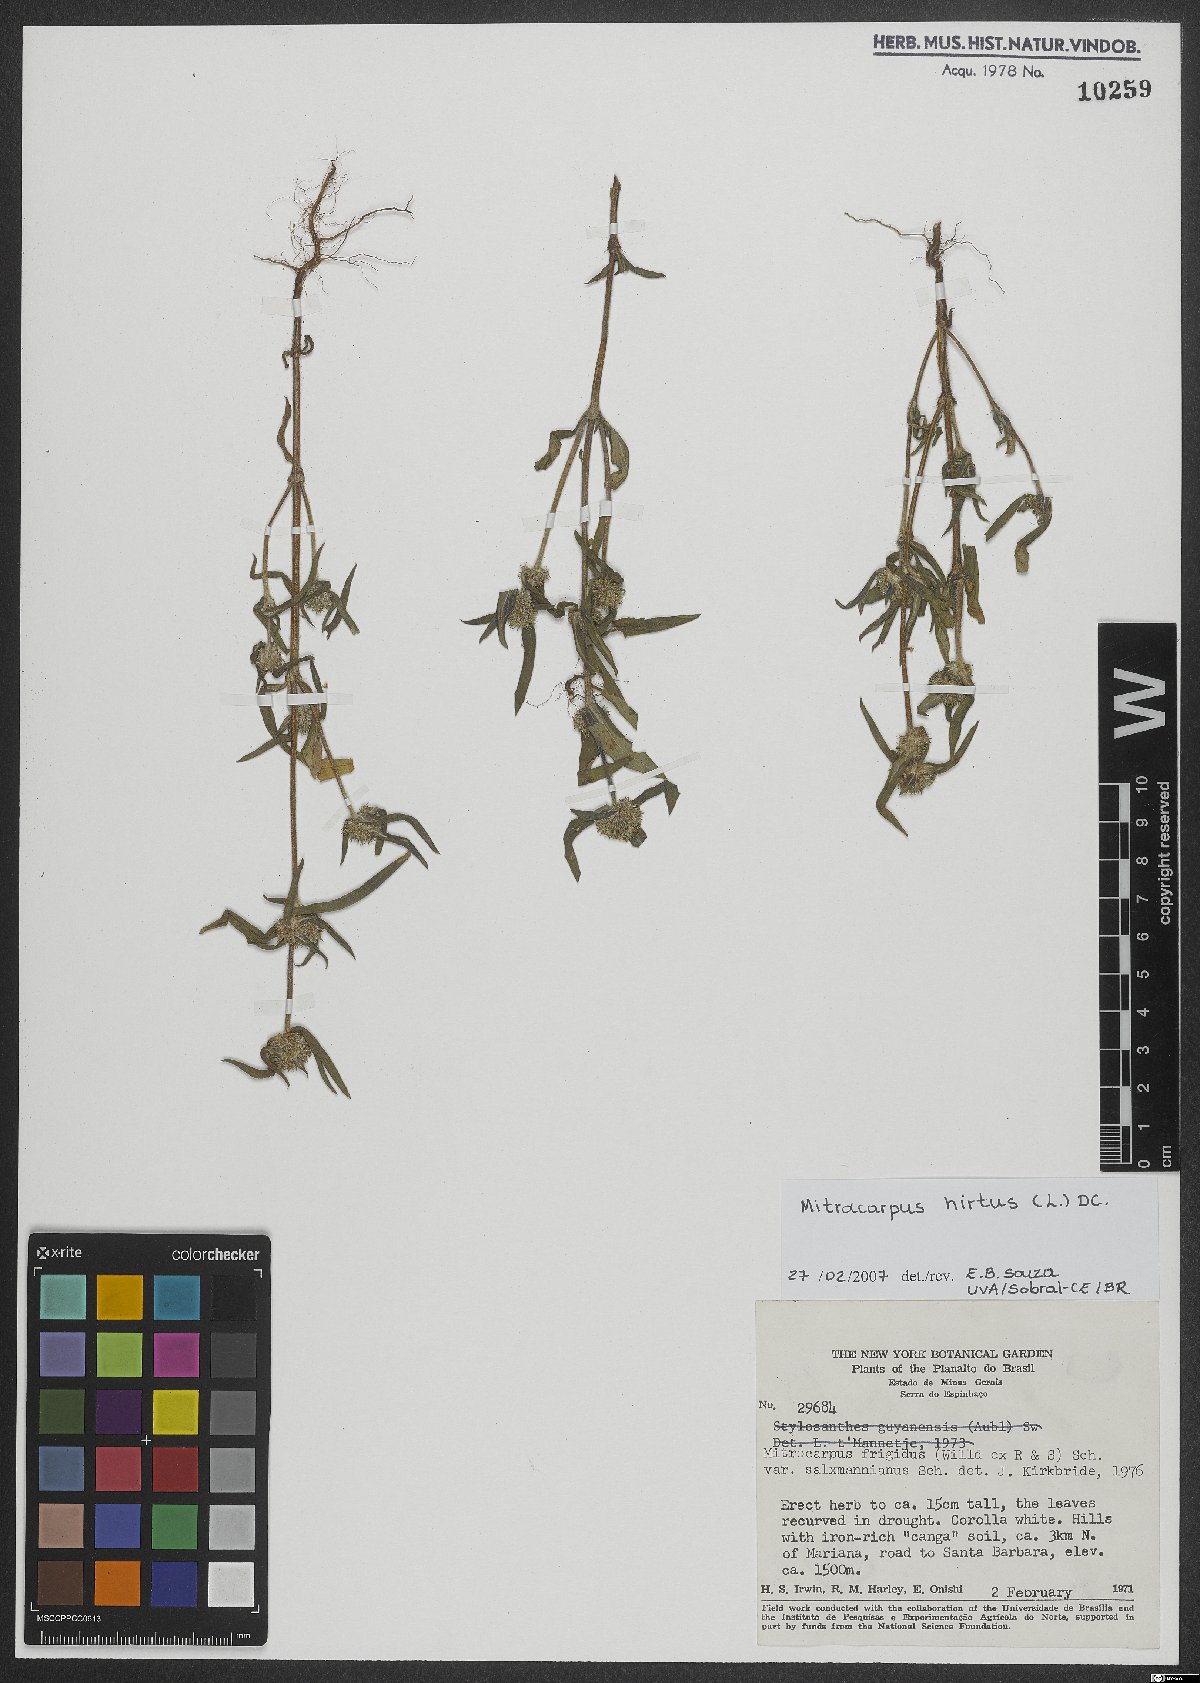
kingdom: Plantae
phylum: Tracheophyta
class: Magnoliopsida
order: Gentianales
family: Rubiaceae
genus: Mitracarpus
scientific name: Mitracarpus hirtus
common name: Tropical girdlepod
